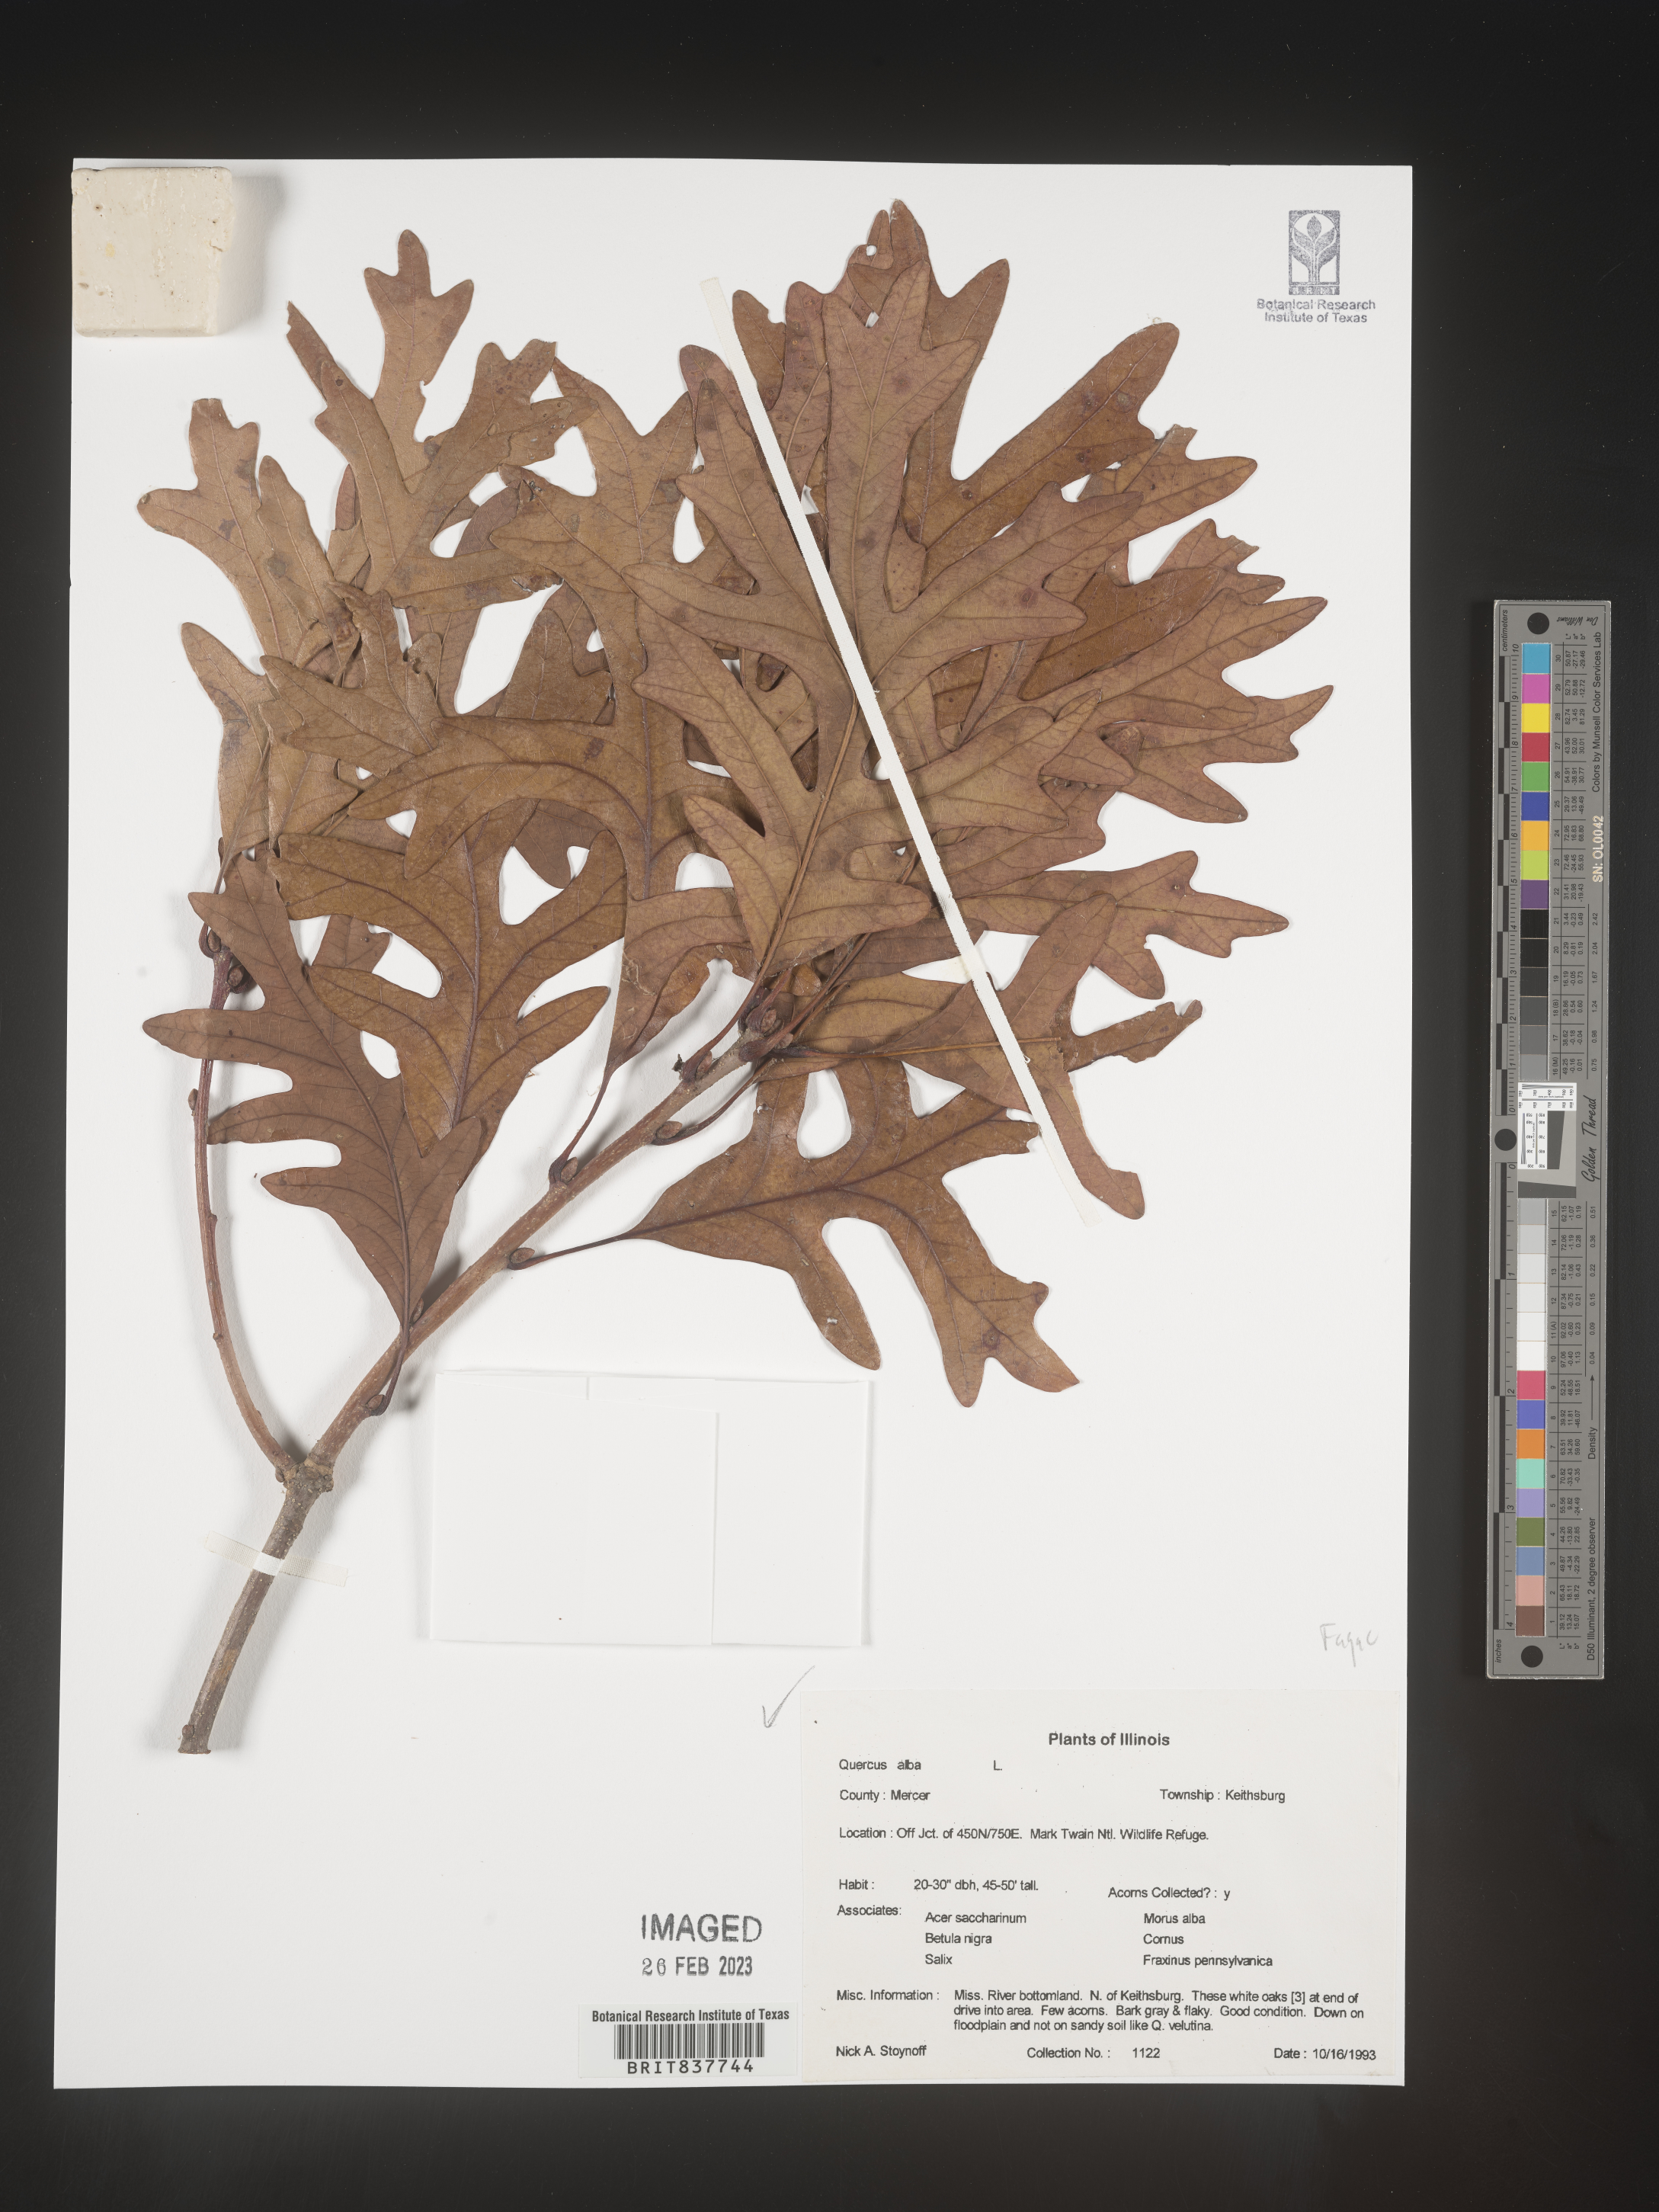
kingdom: Plantae
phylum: Tracheophyta
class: Magnoliopsida
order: Fagales
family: Fagaceae
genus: Quercus
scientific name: Quercus alba
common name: White oak
